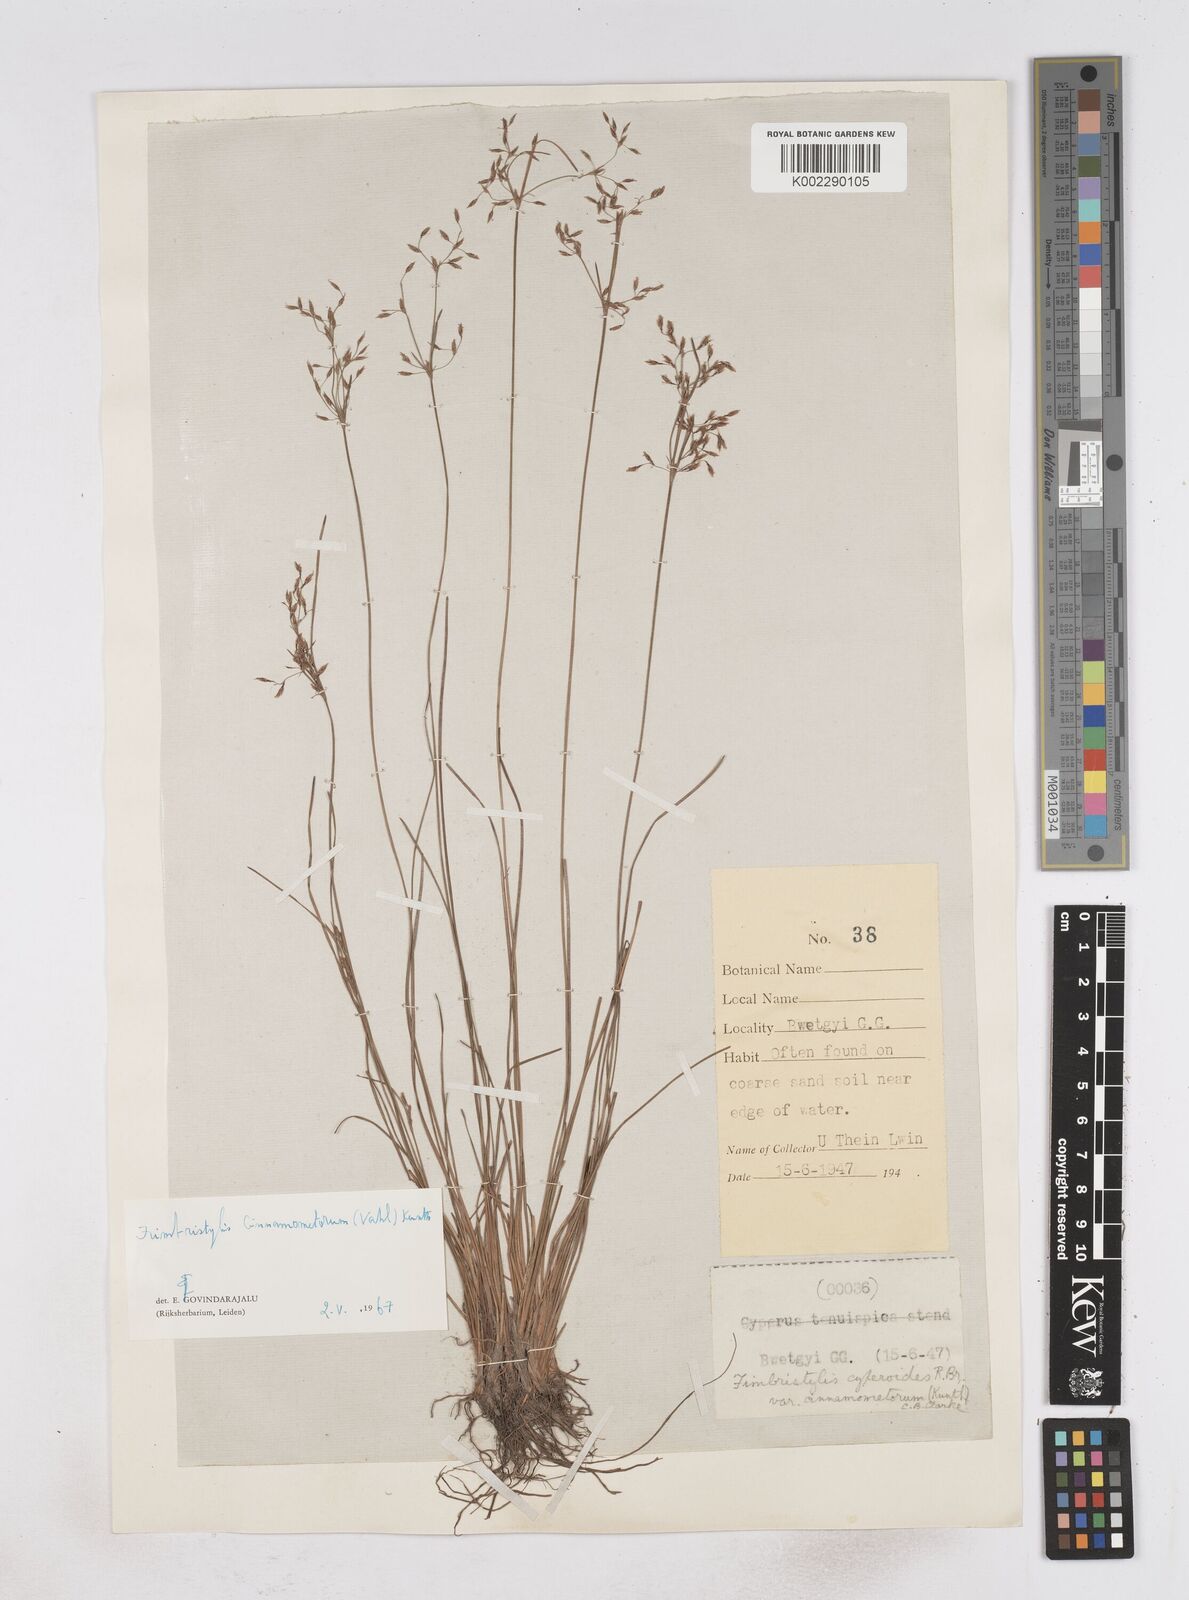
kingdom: Plantae
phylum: Tracheophyta
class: Liliopsida
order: Poales
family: Cyperaceae
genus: Fimbristylis
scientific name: Fimbristylis cinnamometorum
